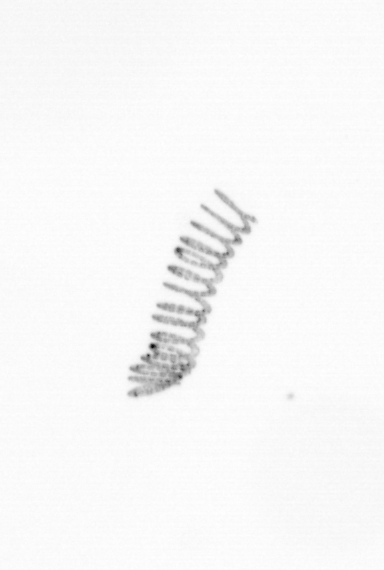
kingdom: Chromista
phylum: Ochrophyta
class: Bacillariophyceae
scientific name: Bacillariophyceae
